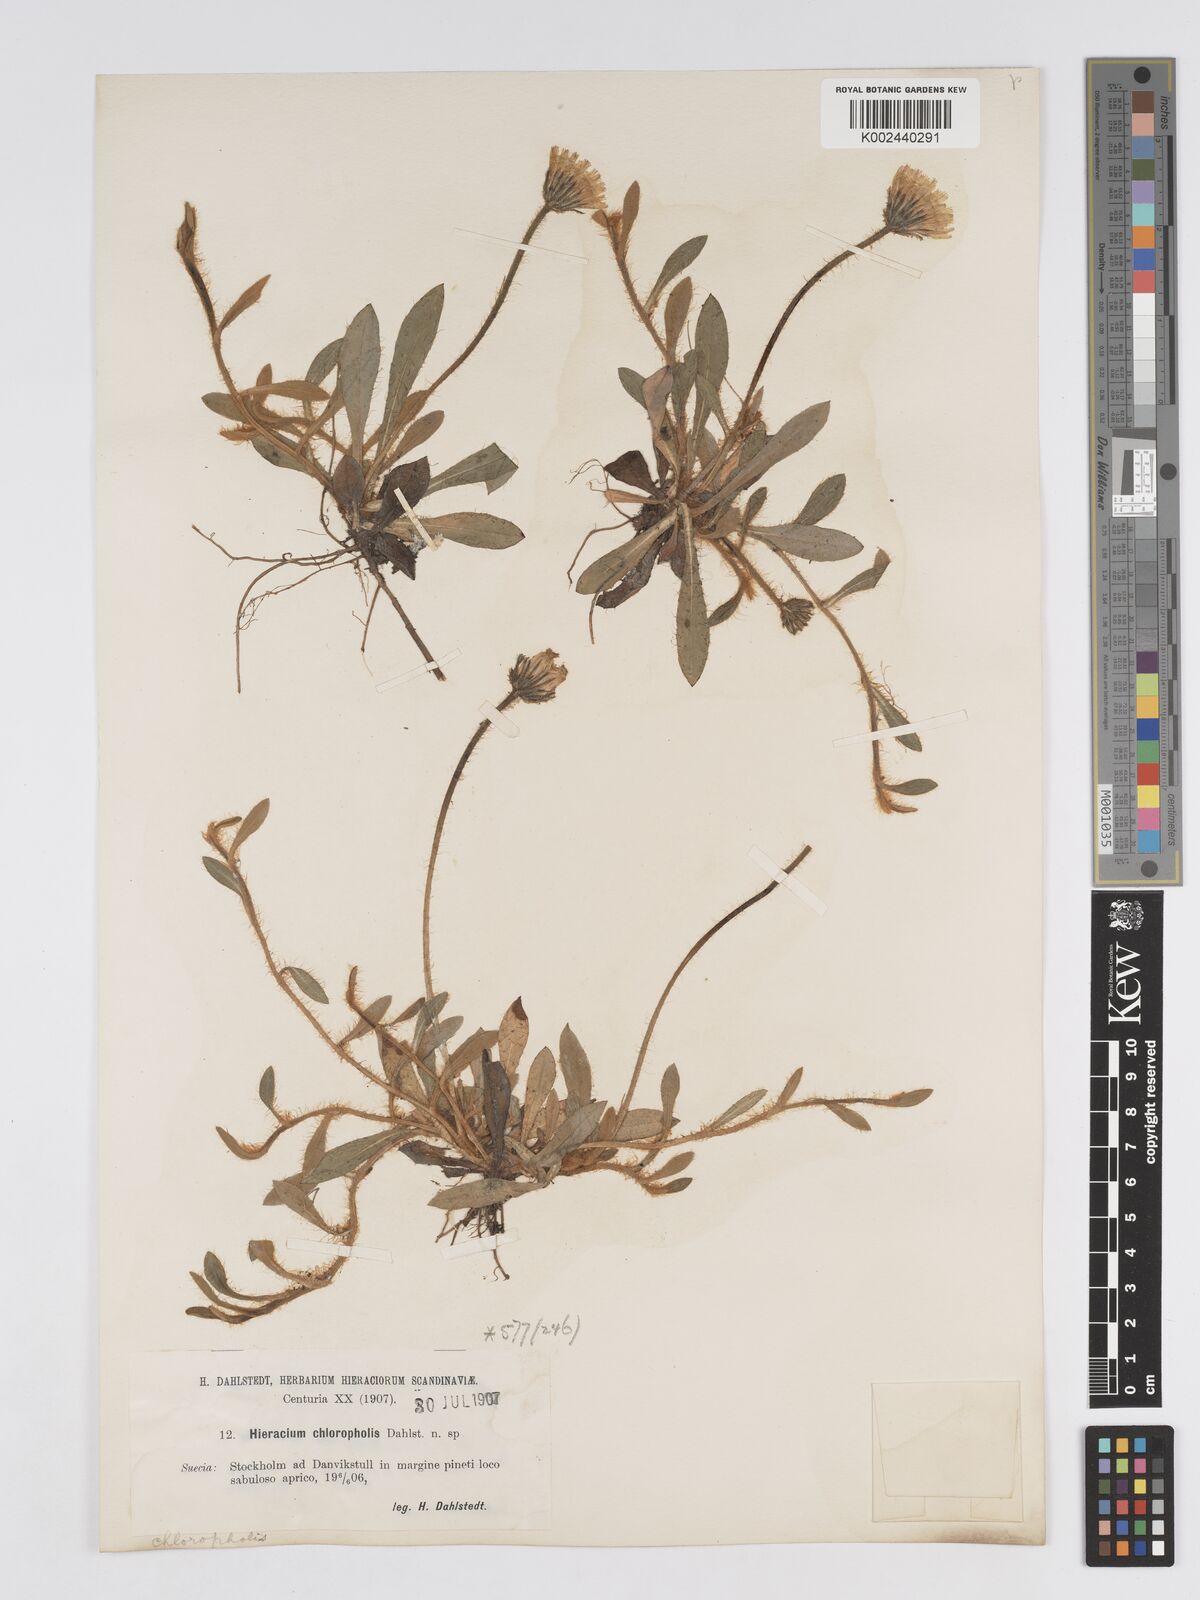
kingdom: Plantae
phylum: Tracheophyta
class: Magnoliopsida
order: Asterales
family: Asteraceae
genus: Pilosella
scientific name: Pilosella officinarum
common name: Mouse-ear hawkweed
